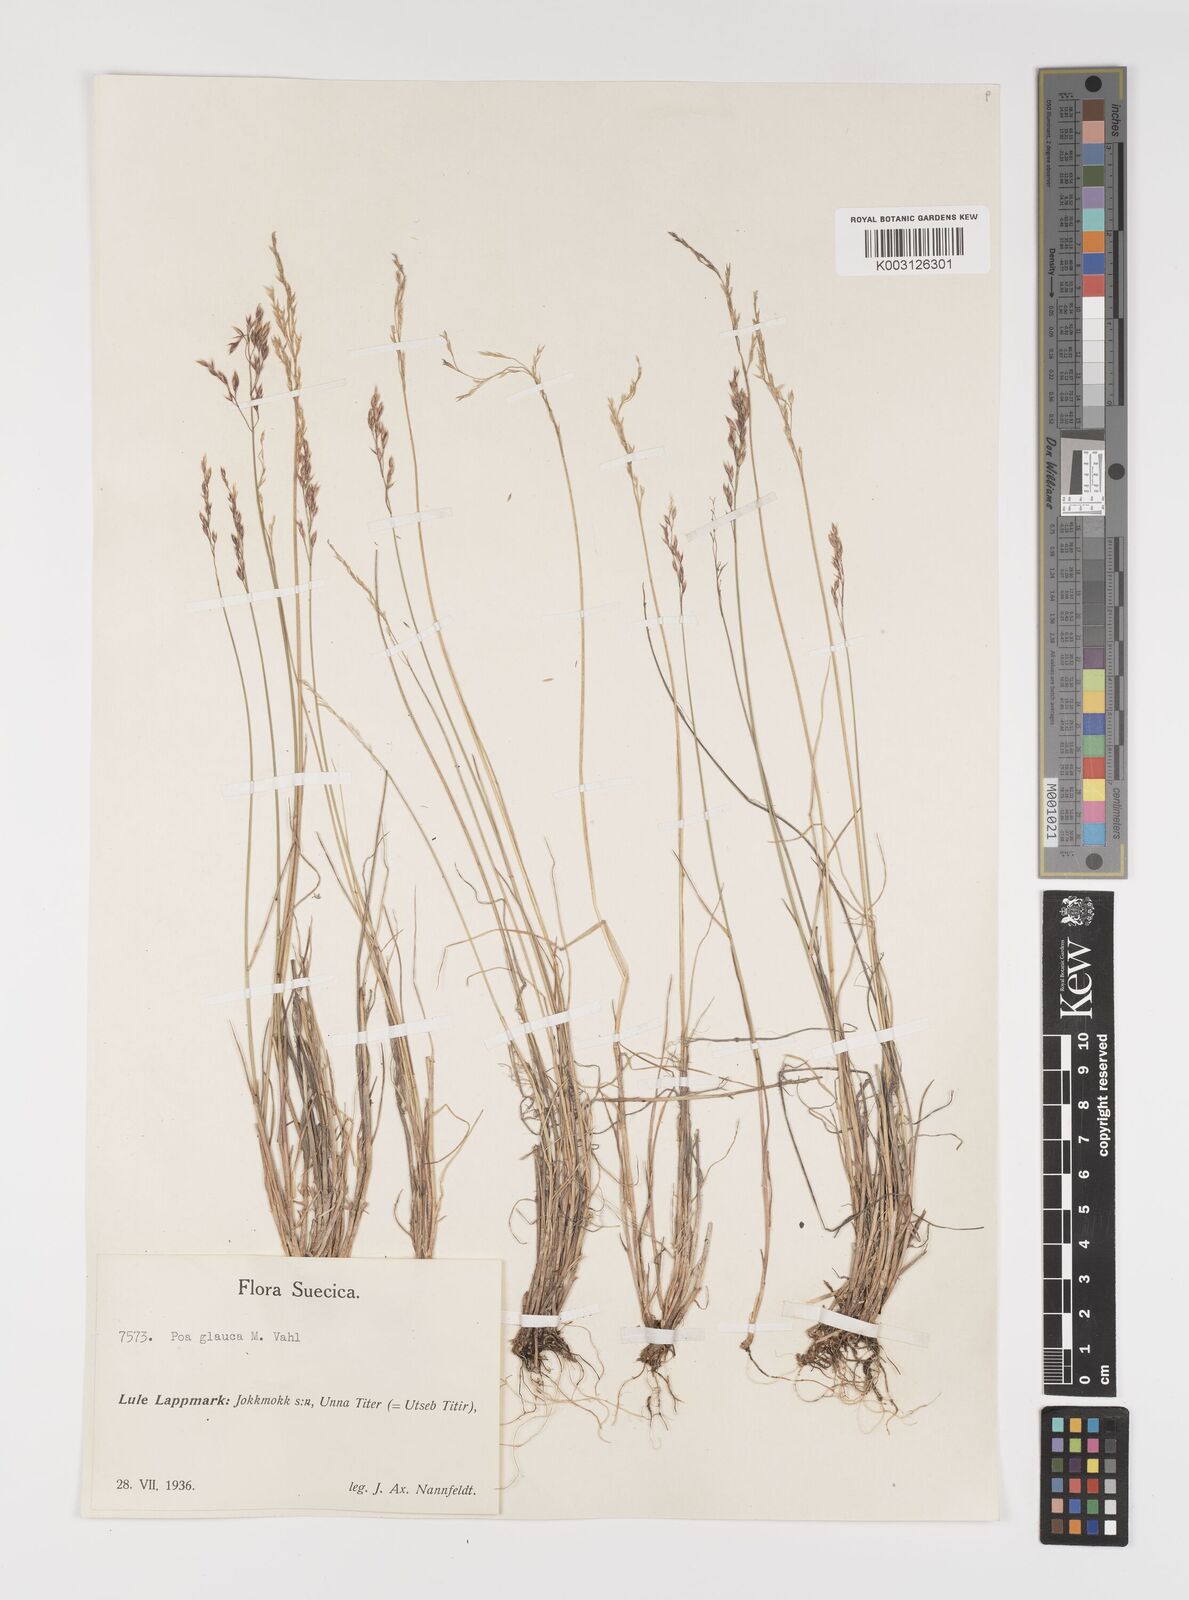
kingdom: Plantae
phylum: Tracheophyta
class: Liliopsida
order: Poales
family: Poaceae
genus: Poa
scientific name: Poa glauca
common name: Glaucous bluegrass
